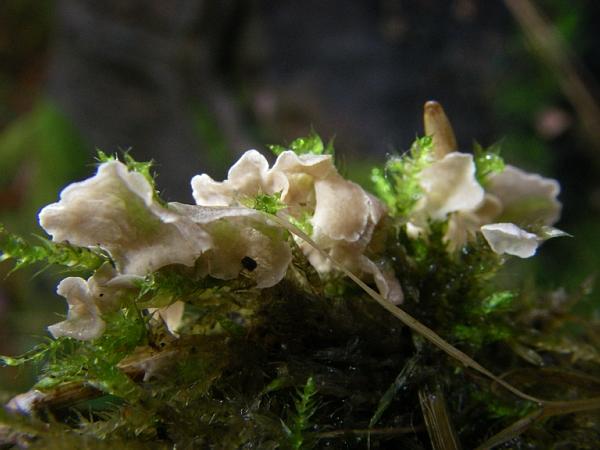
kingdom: Fungi
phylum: Basidiomycota
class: Agaricomycetes
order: Agaricales
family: Hygrophoraceae
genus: Arrhenia
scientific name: Arrhenia retiruga
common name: lille fontænehat
